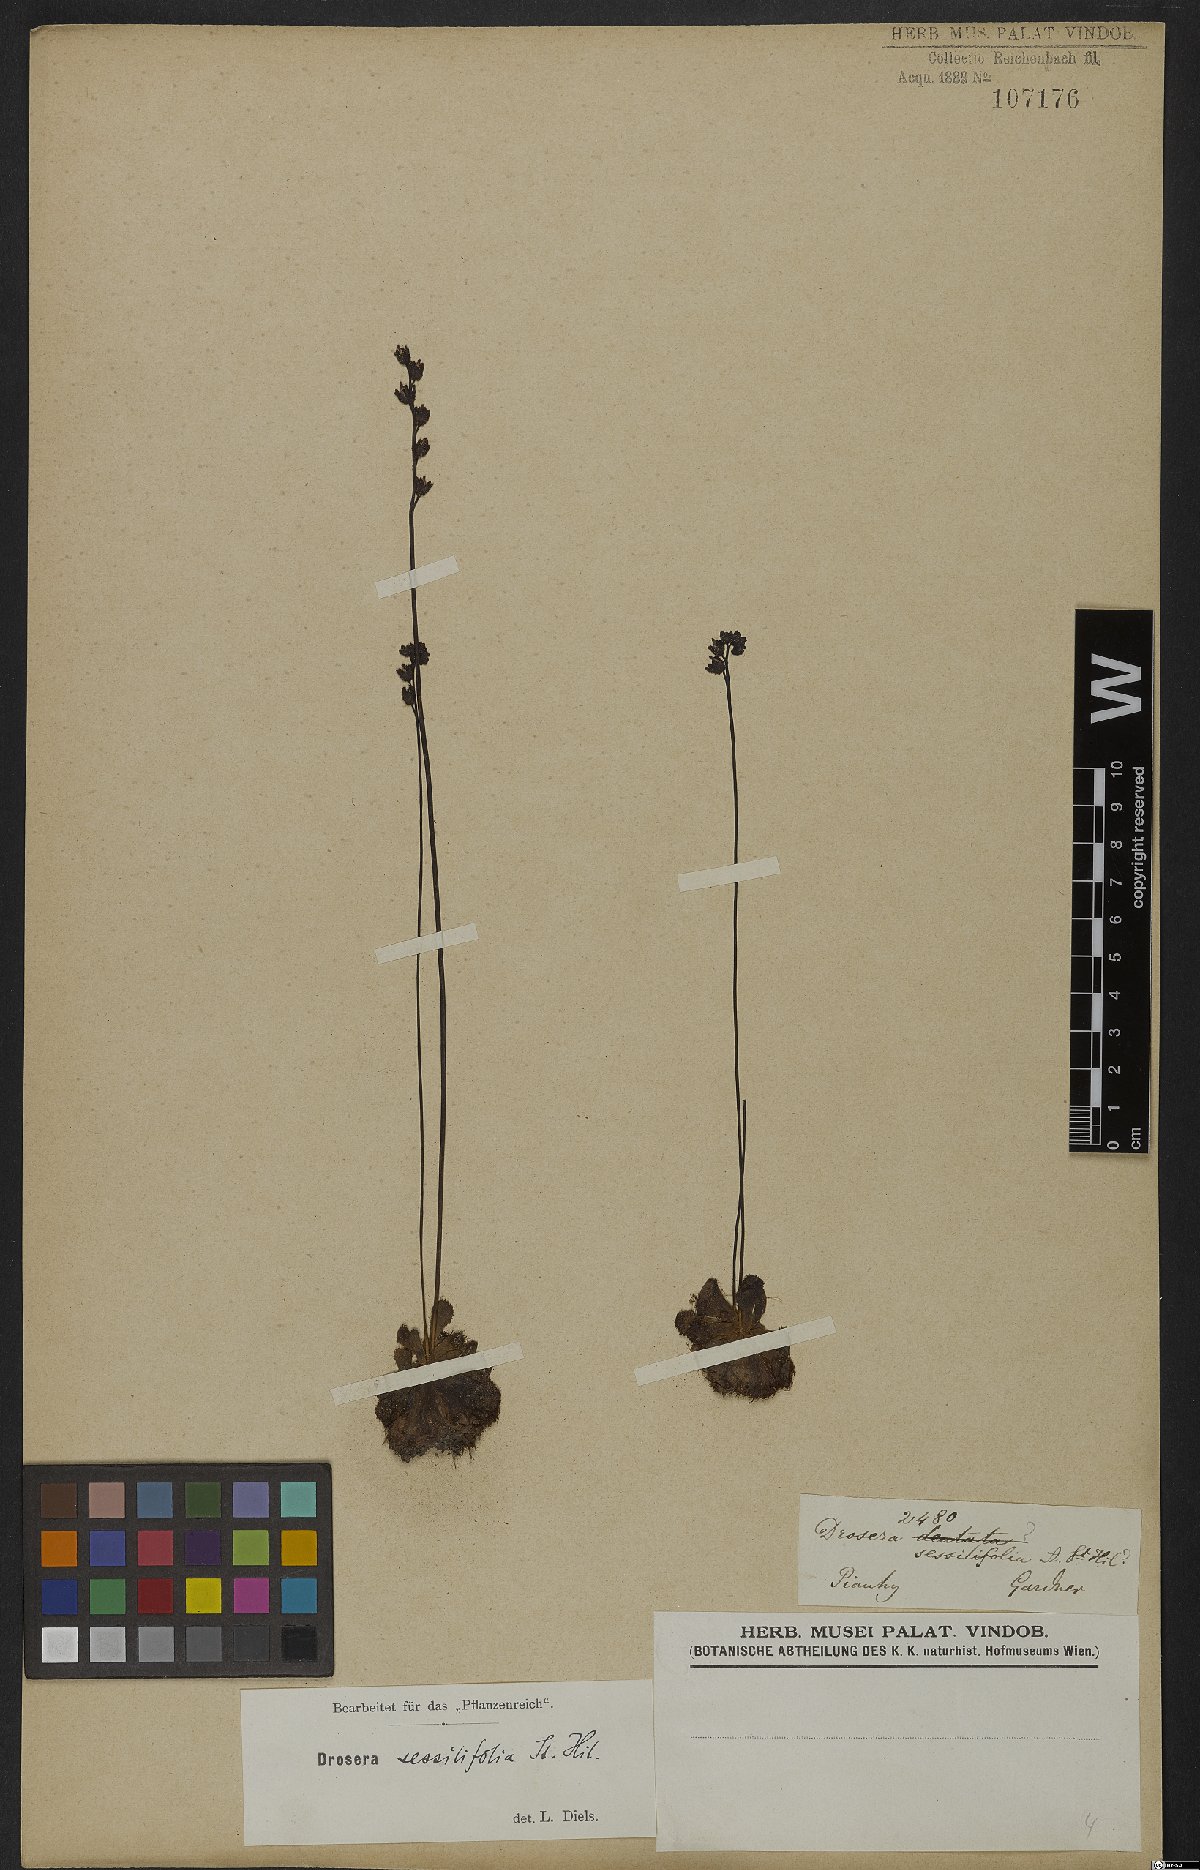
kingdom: Plantae
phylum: Tracheophyta
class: Magnoliopsida
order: Caryophyllales
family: Droseraceae
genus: Drosera
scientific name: Drosera sessilifolia
